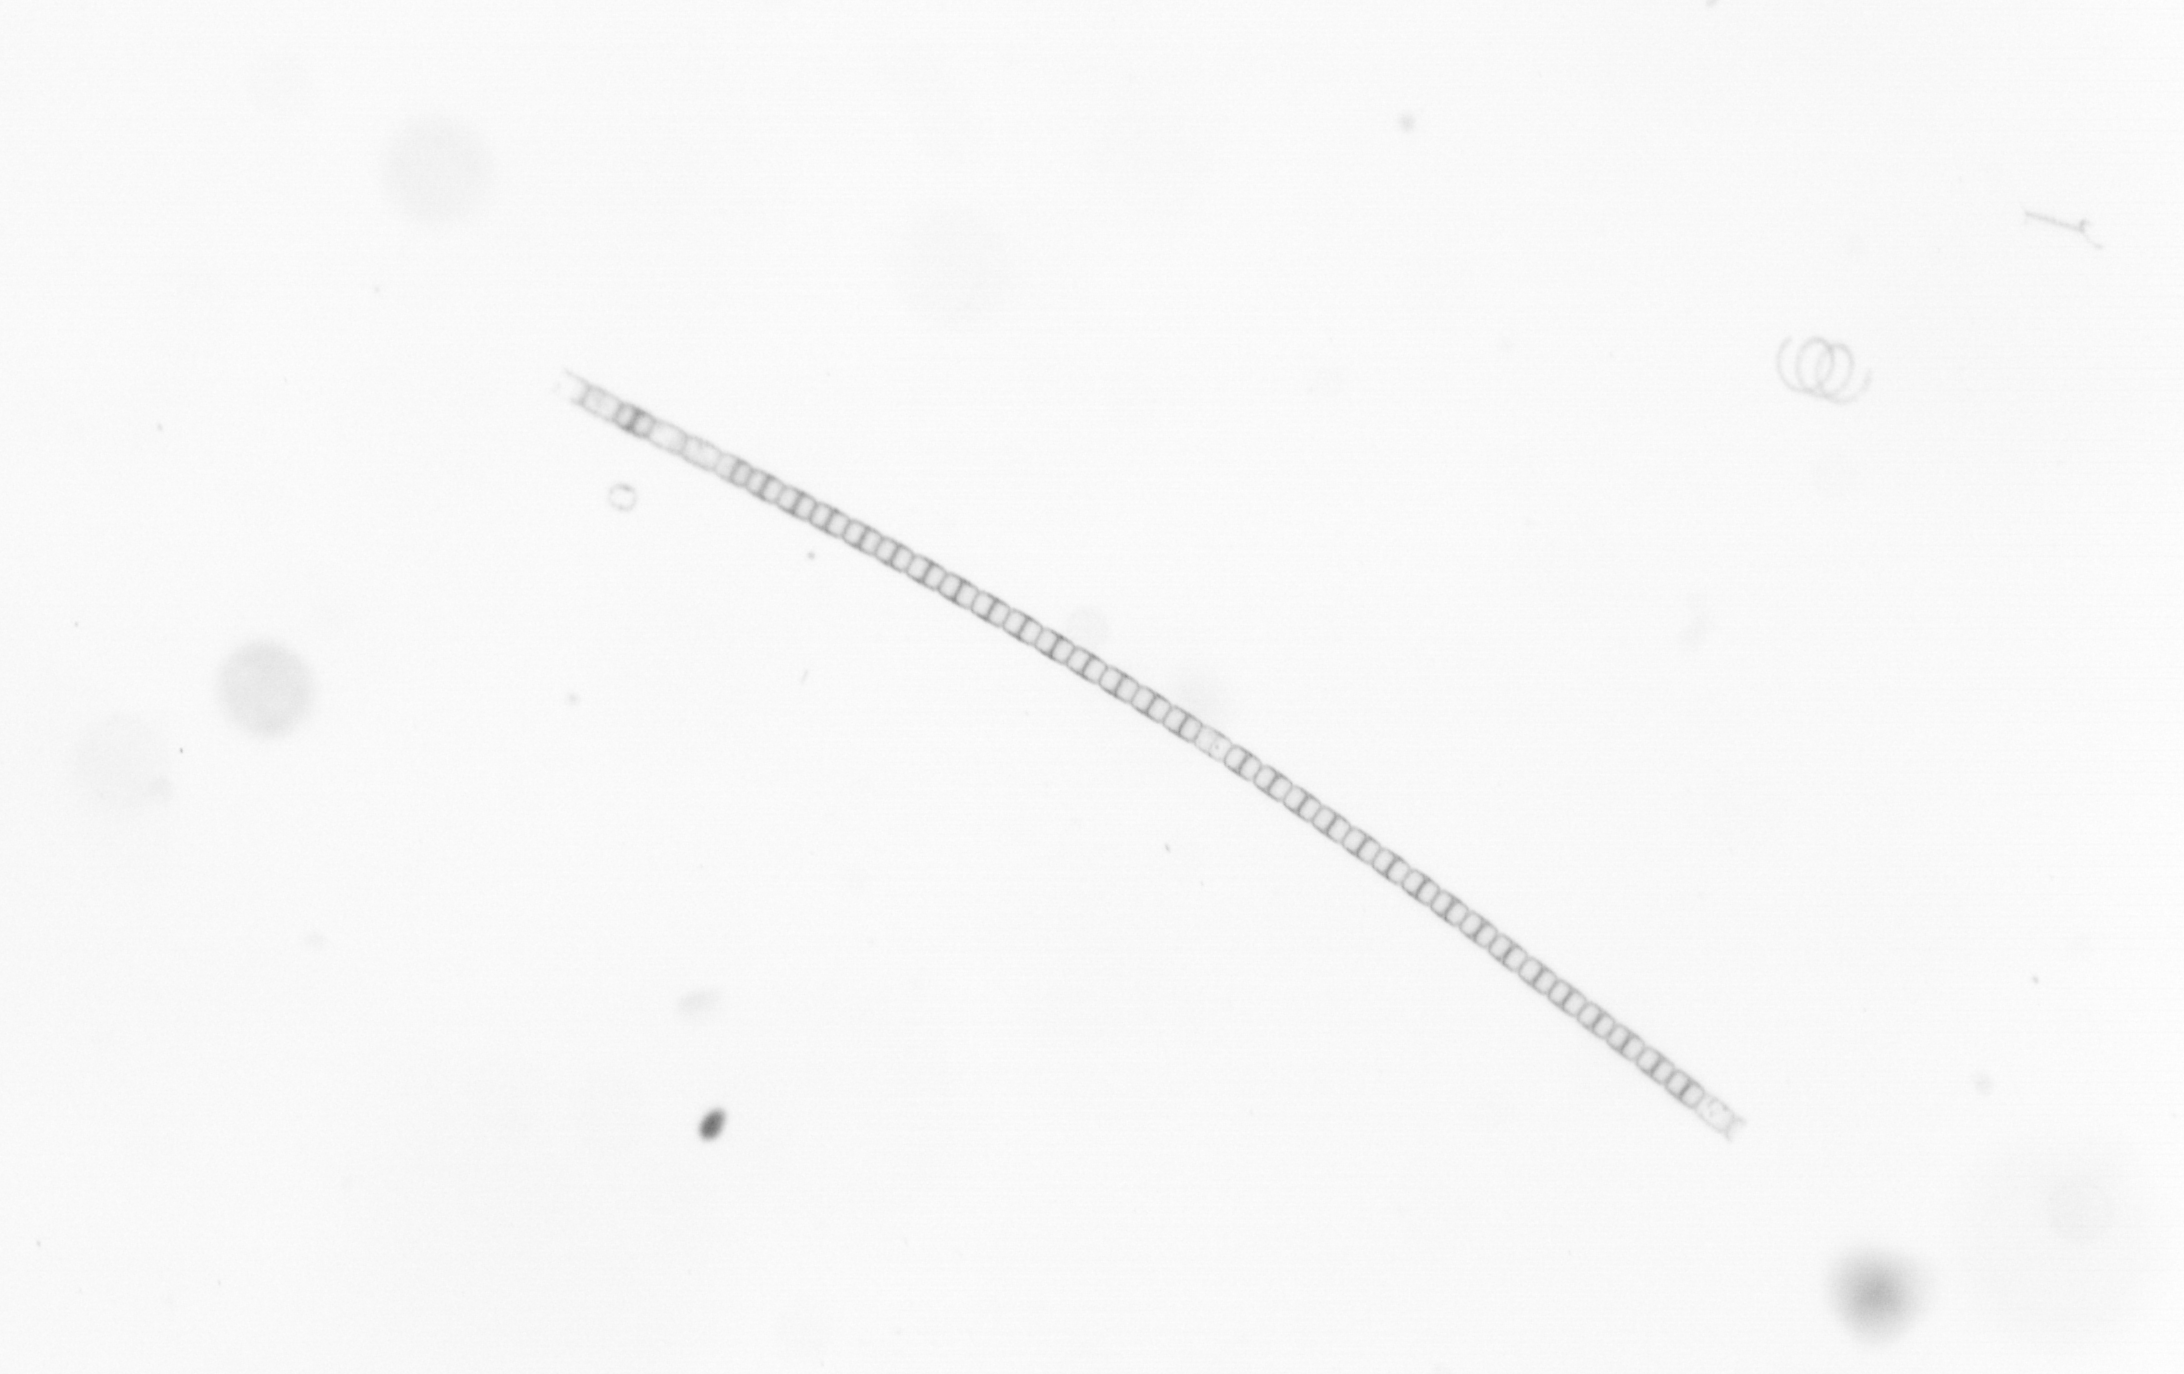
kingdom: Chromista
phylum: Ochrophyta
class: Bacillariophyceae
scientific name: Bacillariophyceae
